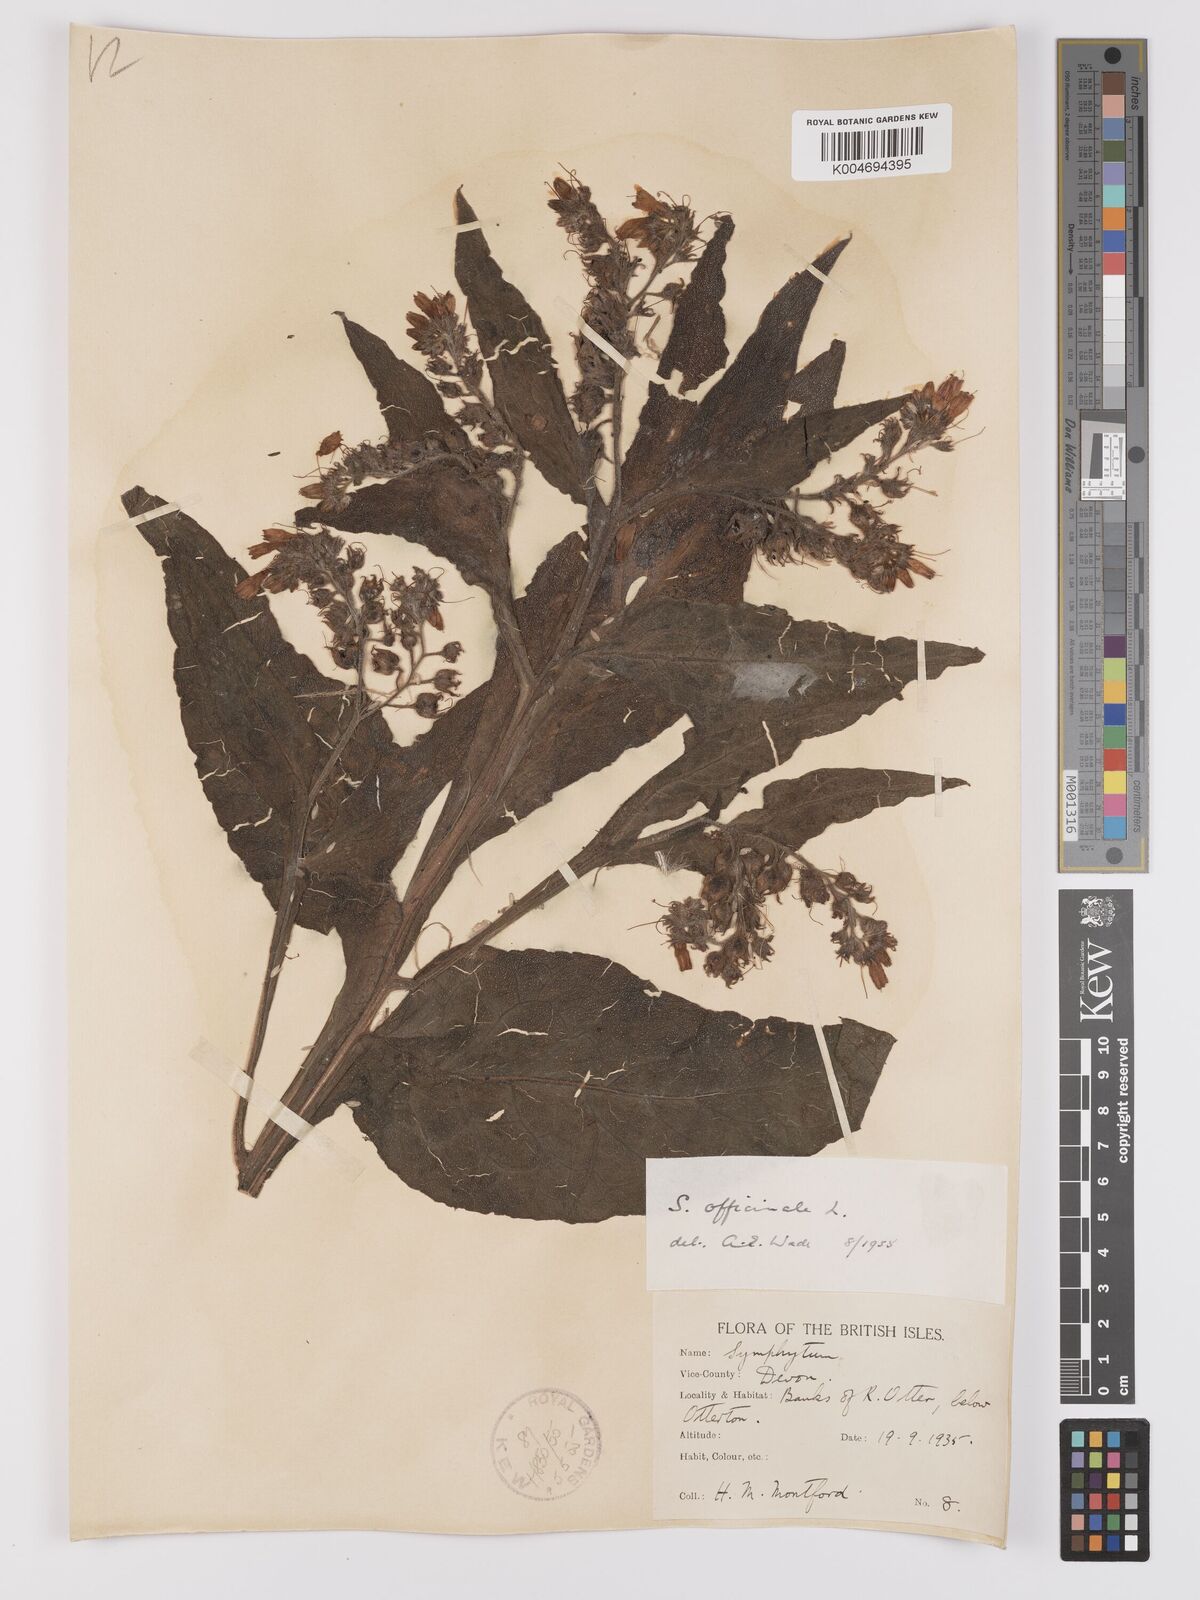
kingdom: Plantae
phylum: Tracheophyta
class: Magnoliopsida
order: Boraginales
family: Boraginaceae
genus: Symphytum
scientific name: Symphytum officinale
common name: Common comfrey
